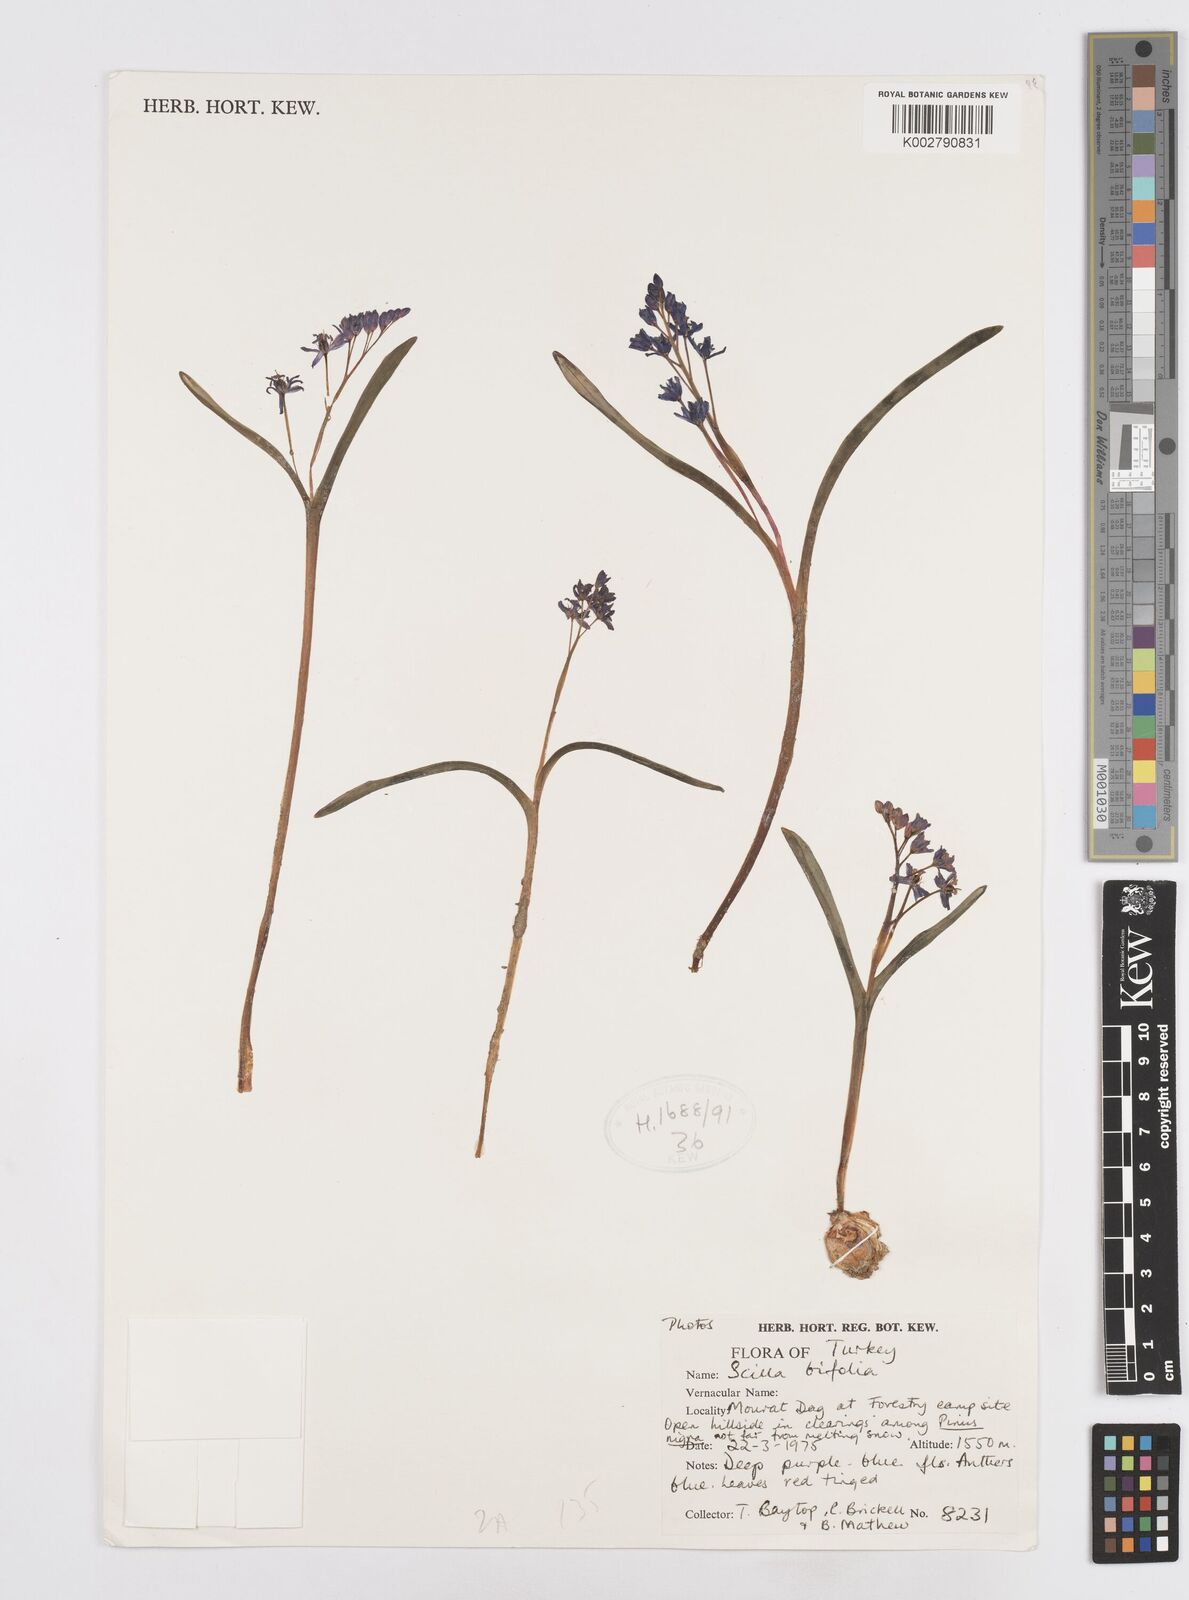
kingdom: Plantae
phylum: Tracheophyta
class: Liliopsida
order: Asparagales
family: Asparagaceae
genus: Scilla
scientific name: Scilla bifolia
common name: Alpine squill
